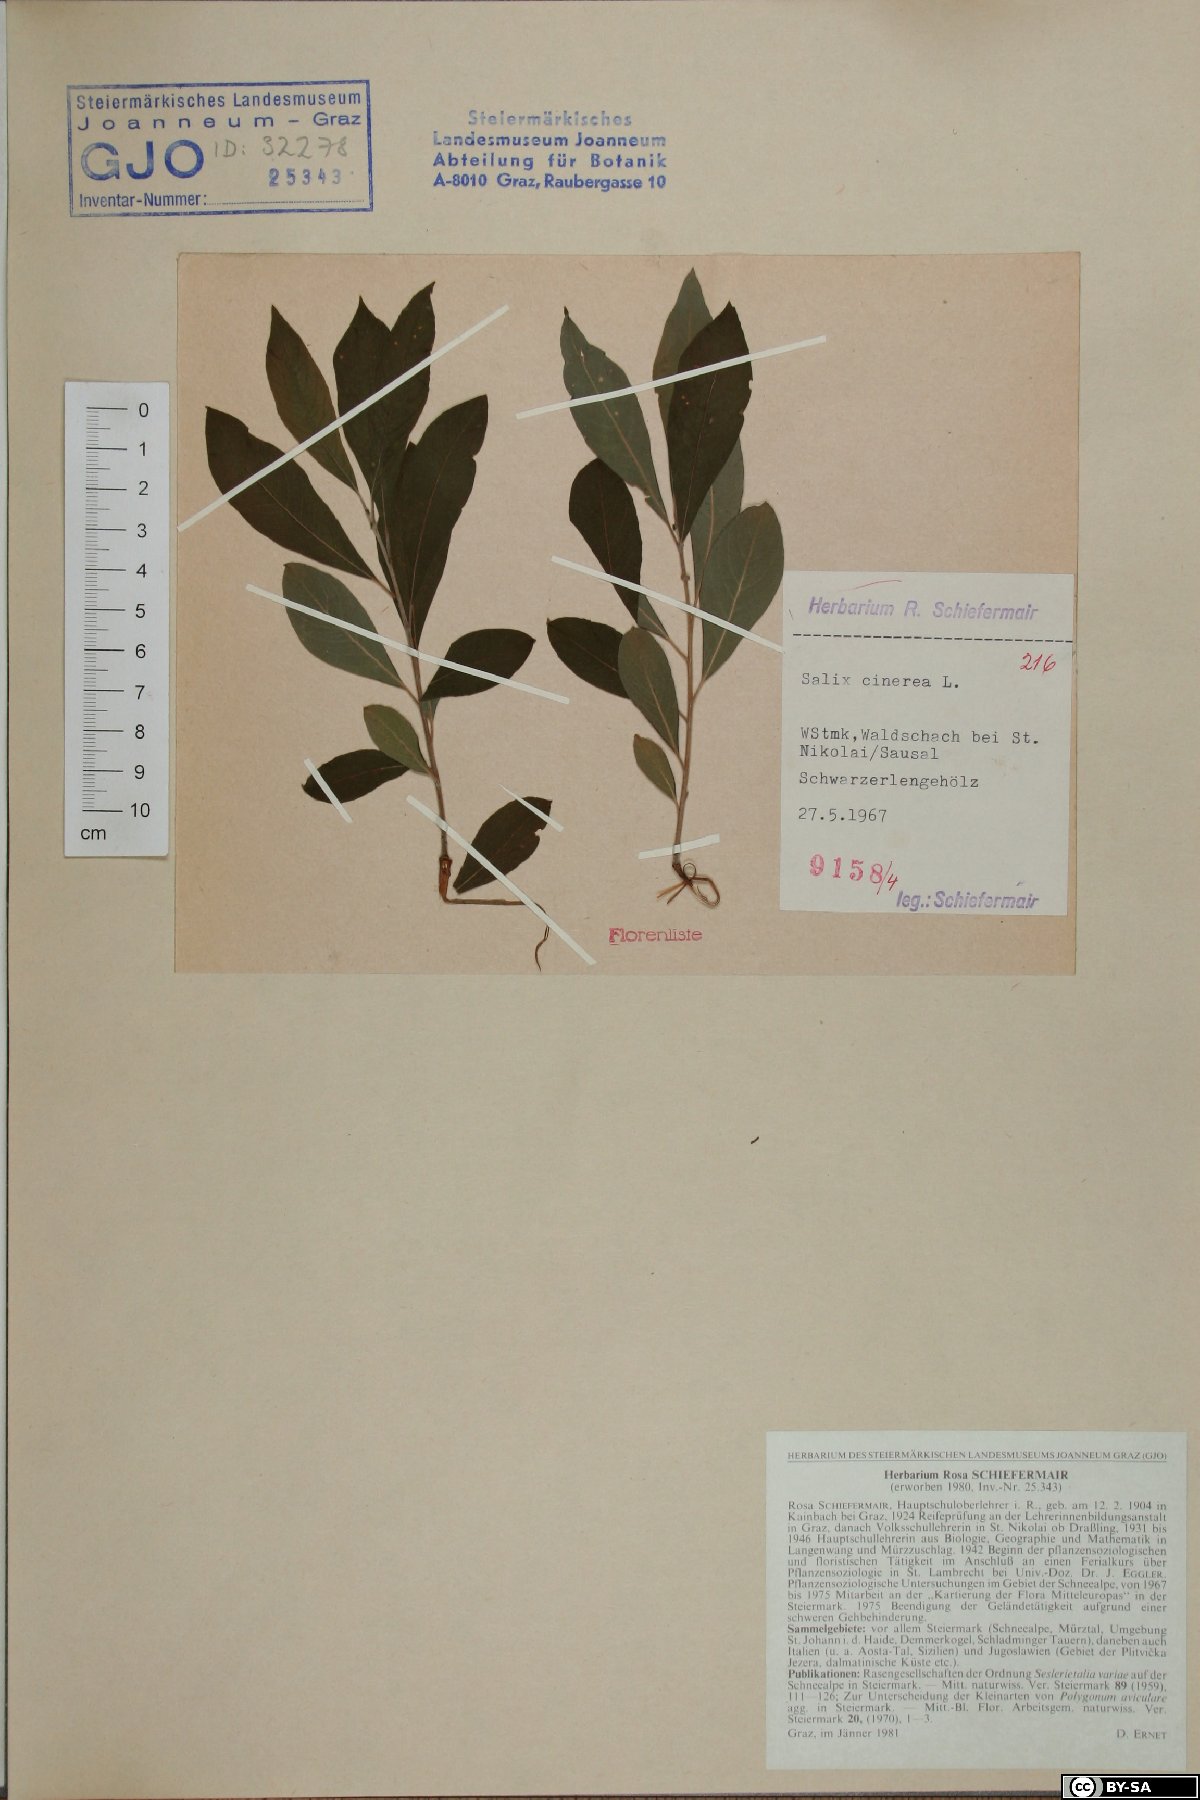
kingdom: Plantae
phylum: Tracheophyta
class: Magnoliopsida
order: Malpighiales
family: Salicaceae
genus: Salix
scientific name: Salix cinerea
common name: Common sallow
